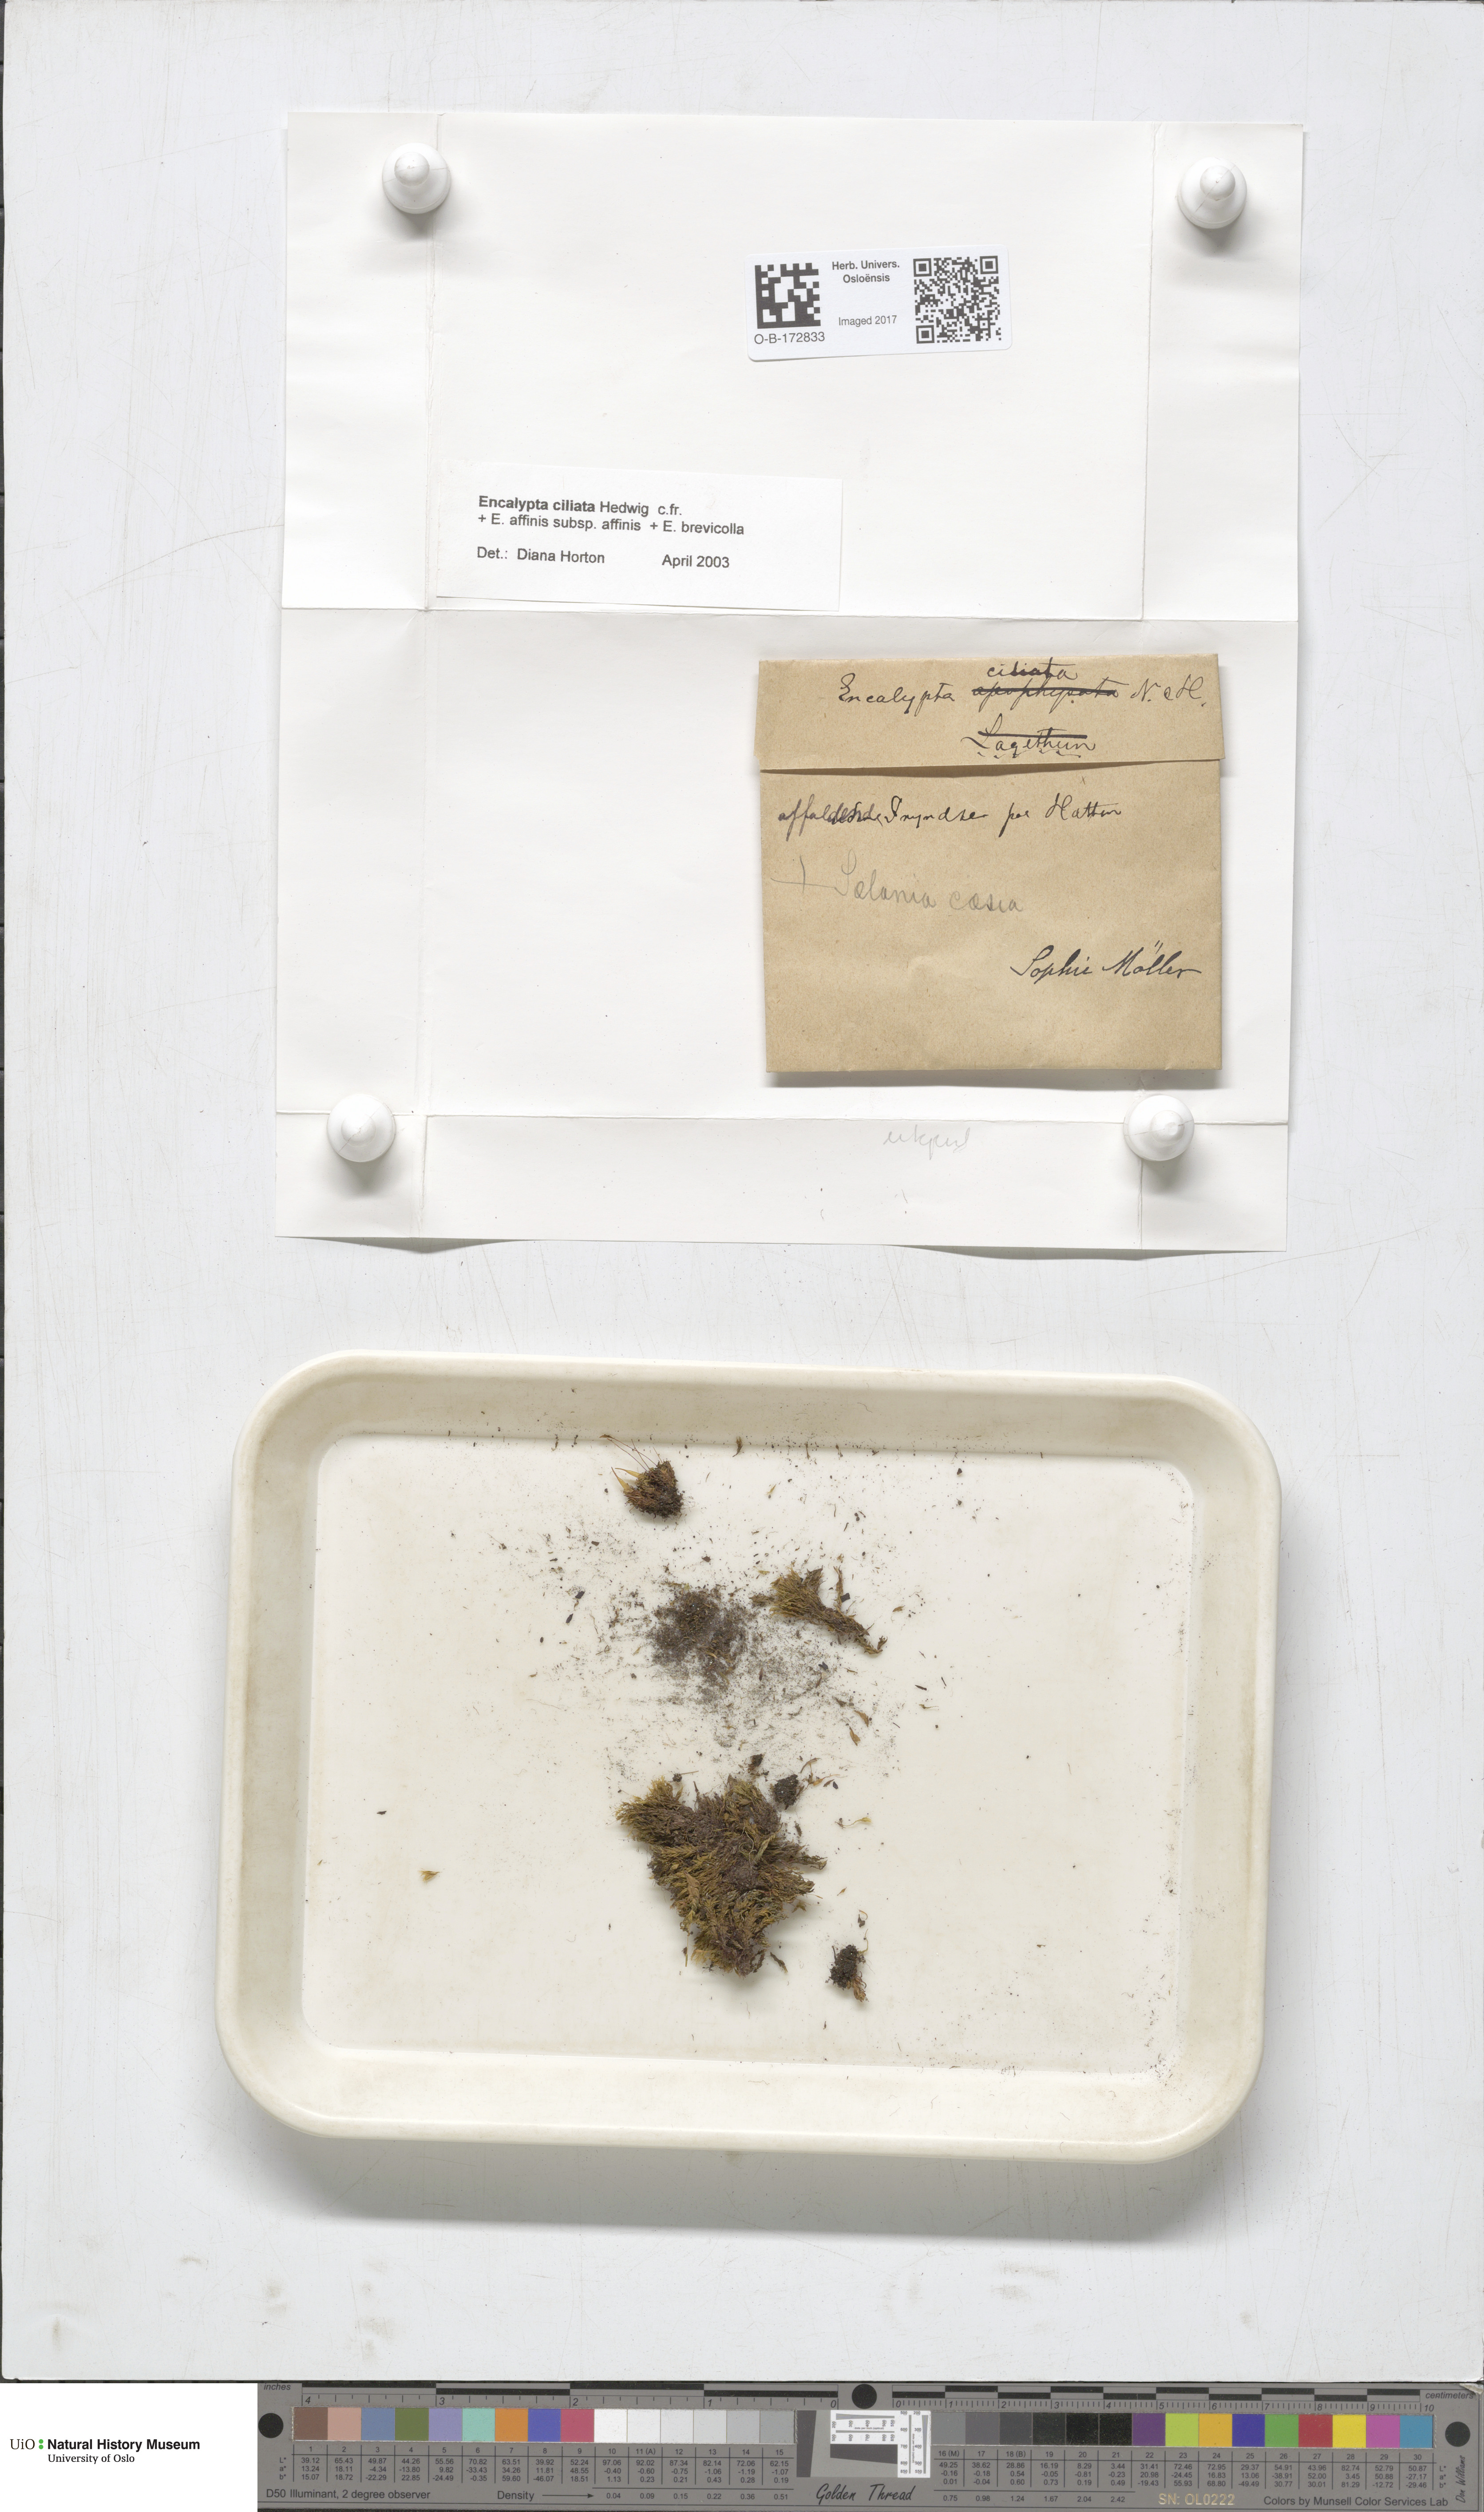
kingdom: Plantae
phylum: Bryophyta
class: Bryopsida
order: Encalyptales
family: Encalyptaceae
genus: Encalypta
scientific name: Encalypta ciliata
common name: Fringed extinguisher-moss
